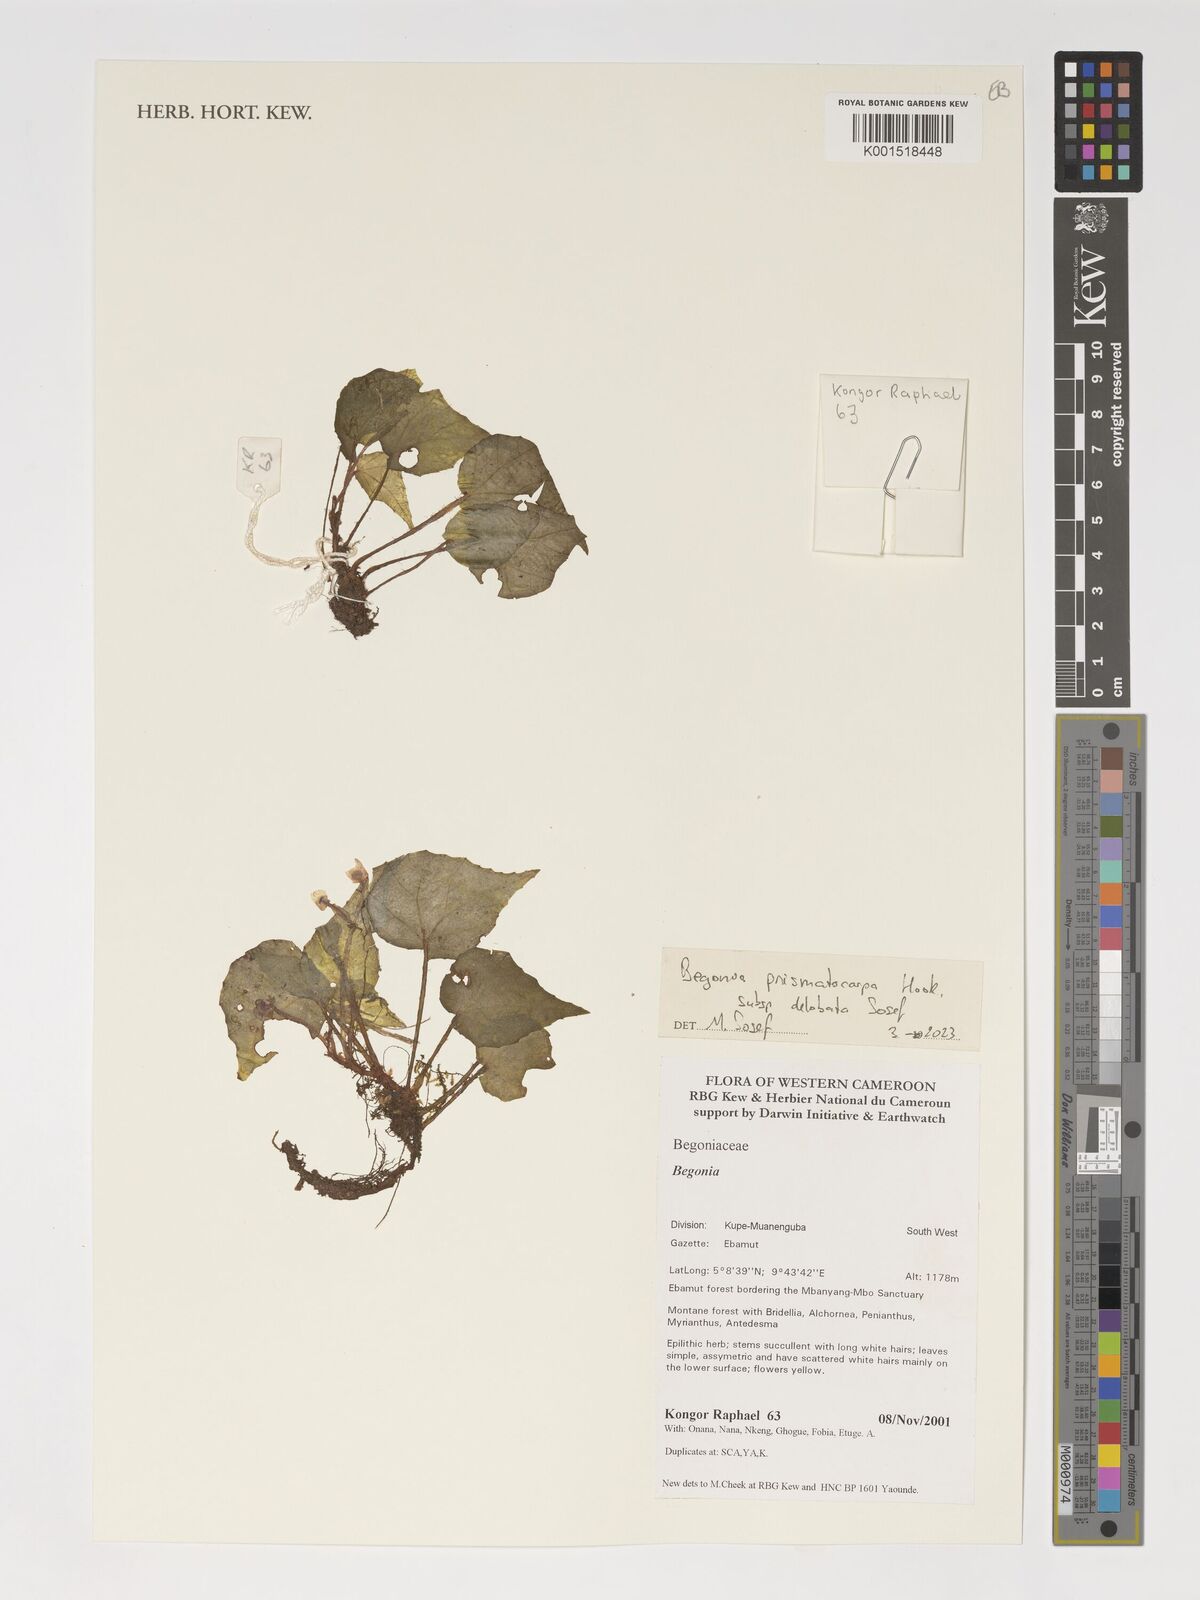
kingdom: Plantae
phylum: Tracheophyta
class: Magnoliopsida
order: Cucurbitales
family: Begoniaceae
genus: Begonia
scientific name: Begonia prismatocarpa
